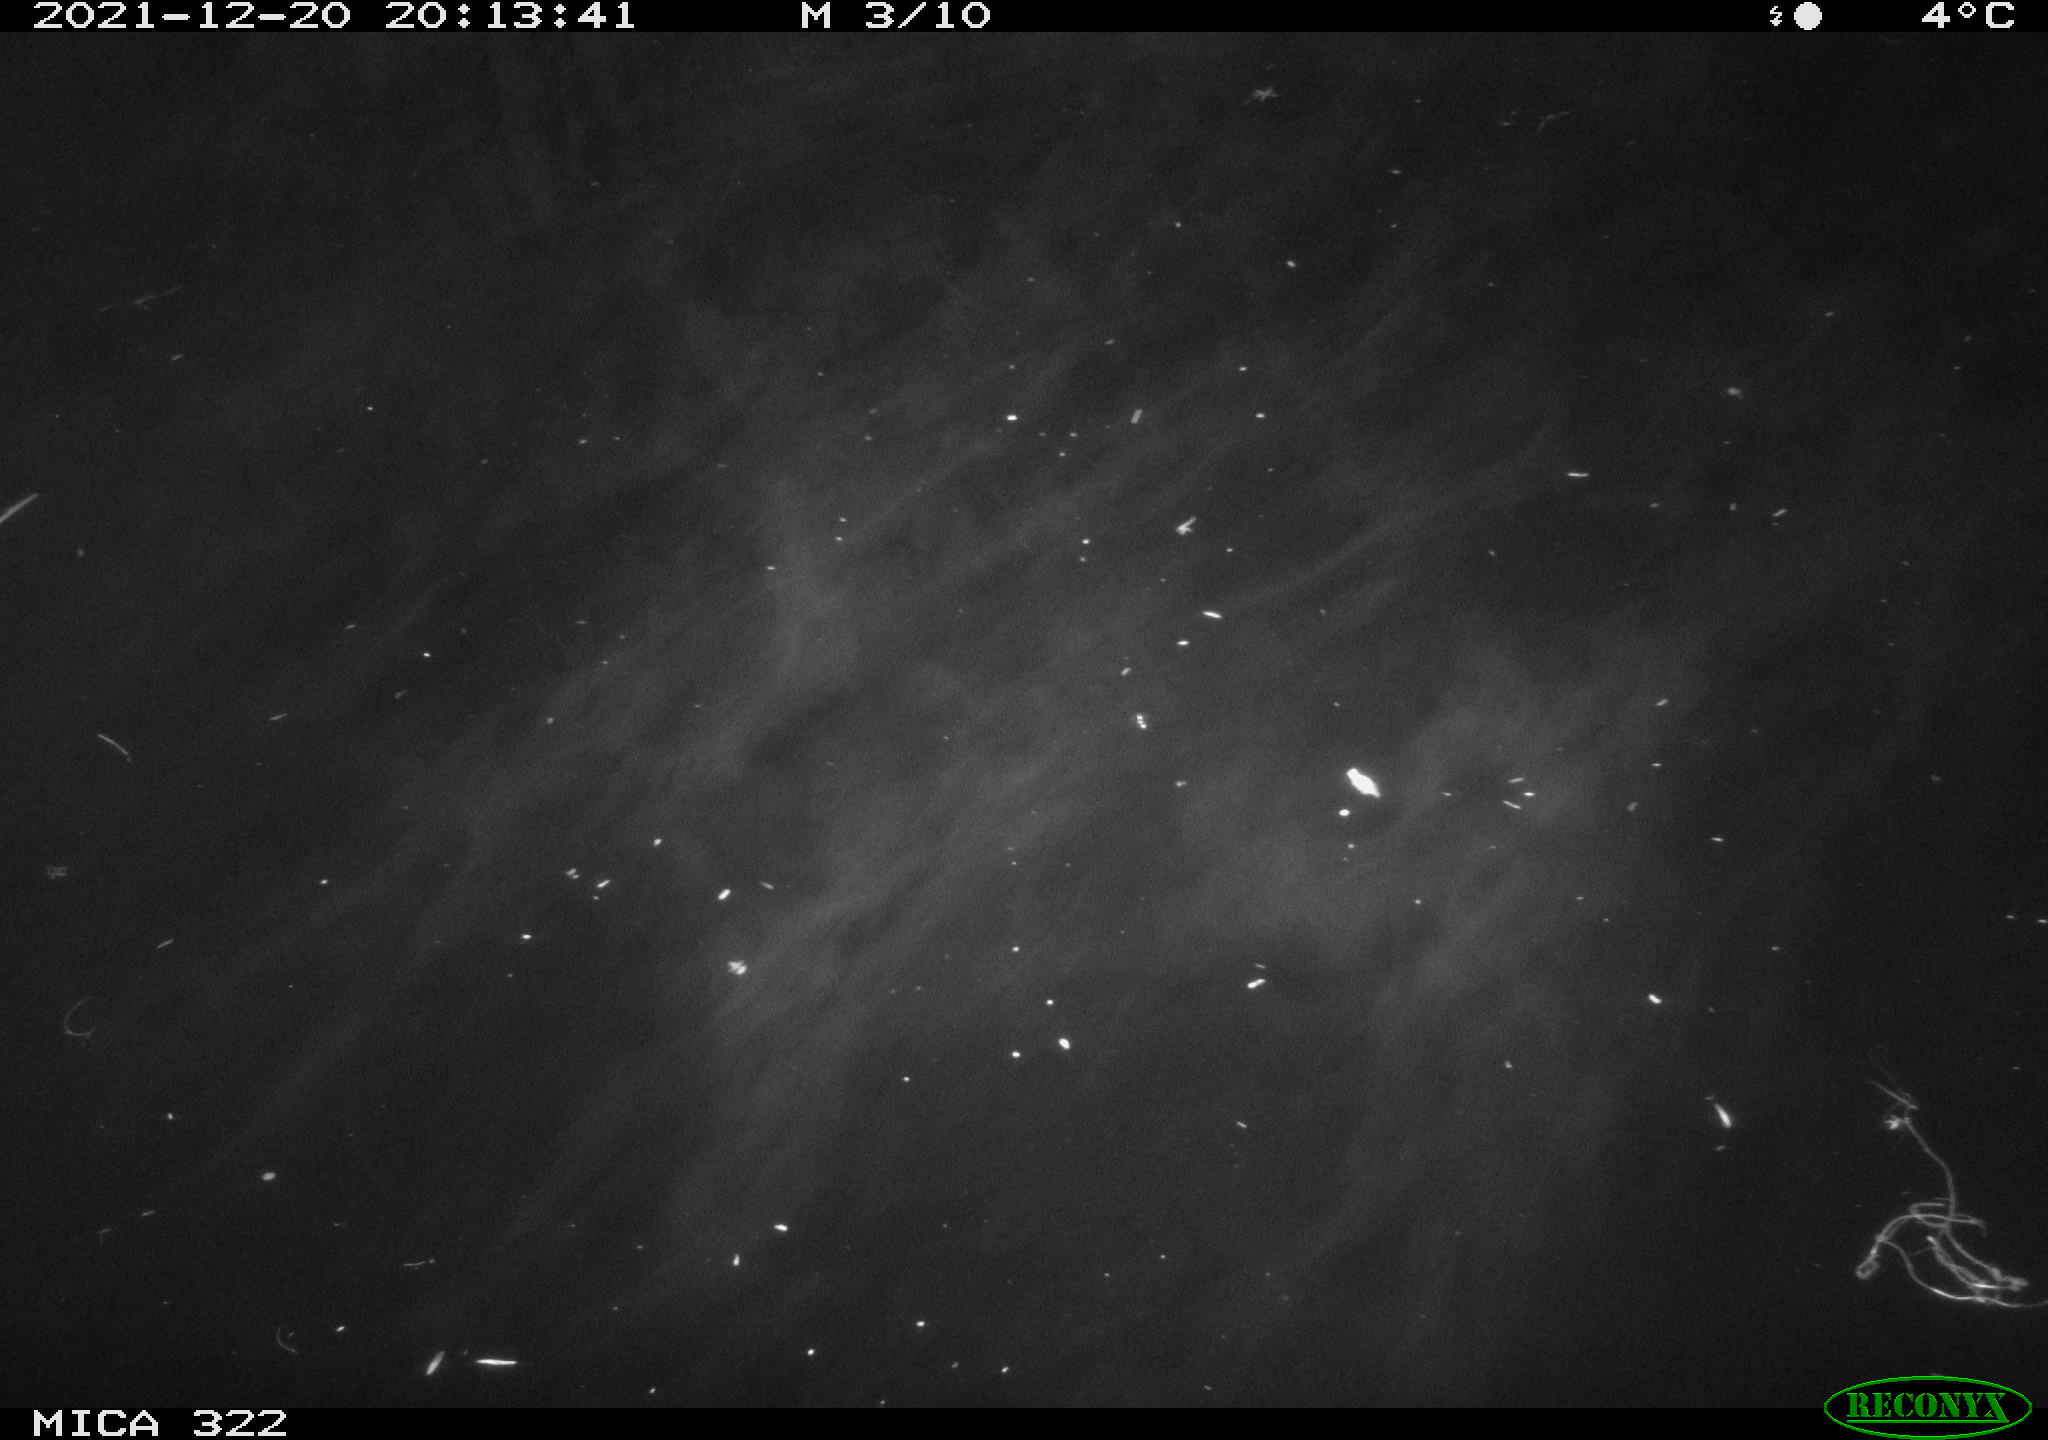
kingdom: Animalia
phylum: Chordata
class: Mammalia
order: Rodentia
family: Muridae
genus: Rattus
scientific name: Rattus norvegicus
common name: Brown rat
